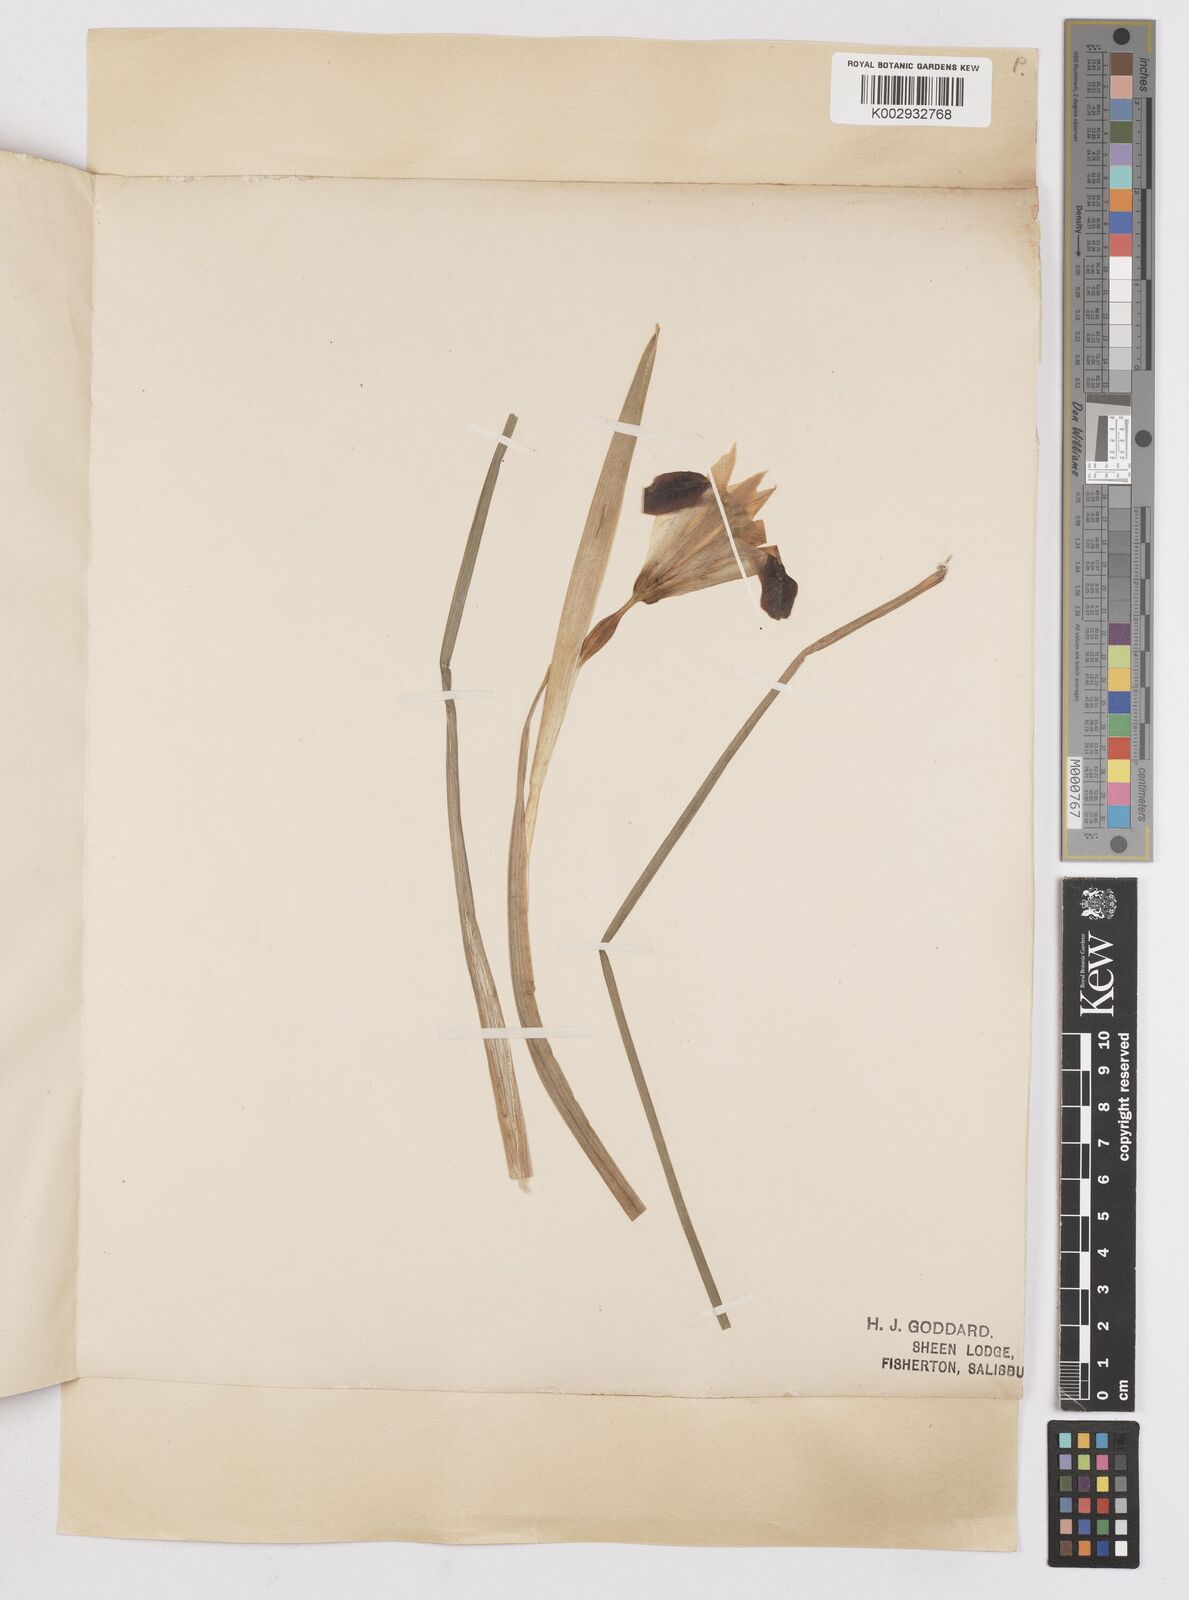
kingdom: Plantae
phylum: Tracheophyta
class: Liliopsida
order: Asparagales
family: Iridaceae
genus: Iris
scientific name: Iris tuberosa
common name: Snake's-head iris
